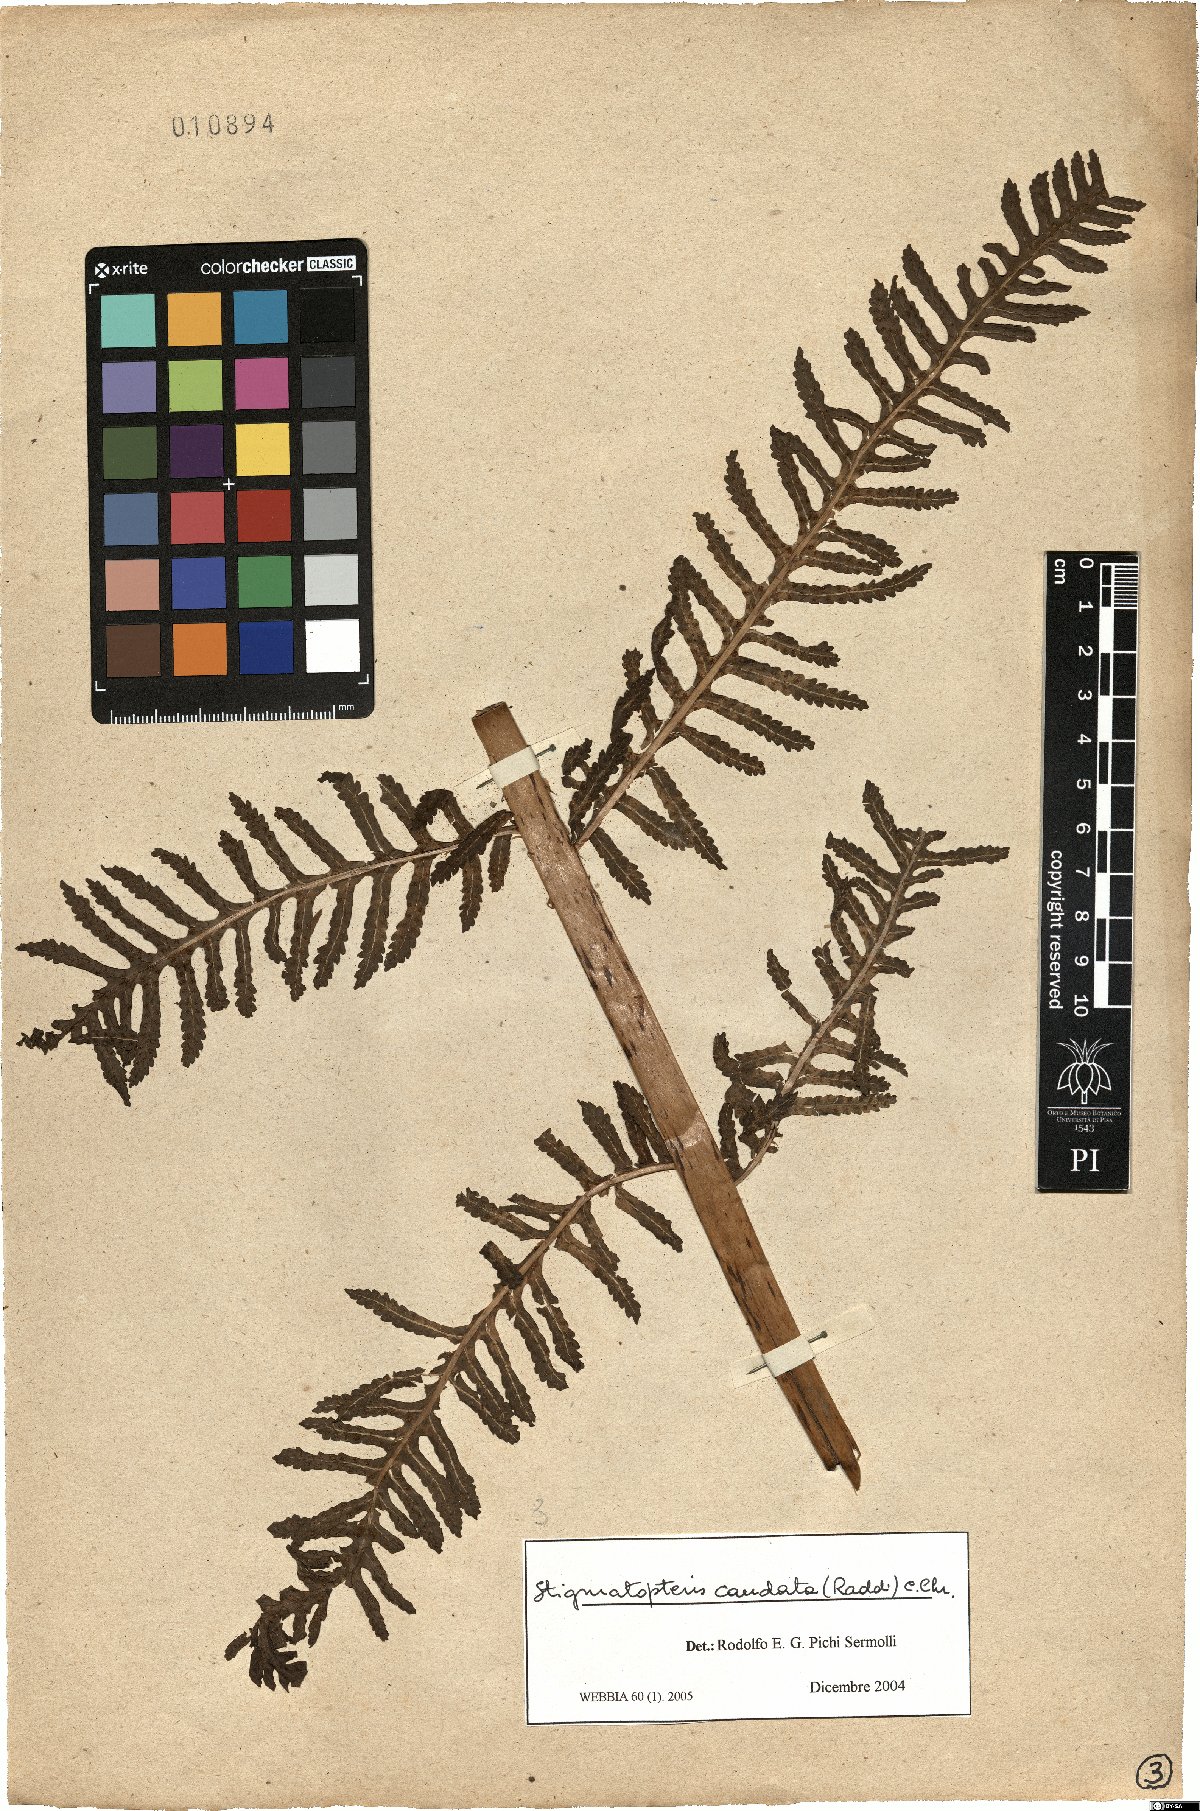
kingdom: Plantae
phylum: Tracheophyta
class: Polypodiopsida
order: Polypodiales
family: Dryopteridaceae
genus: Stigmatopteris
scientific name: Stigmatopteris caudata
